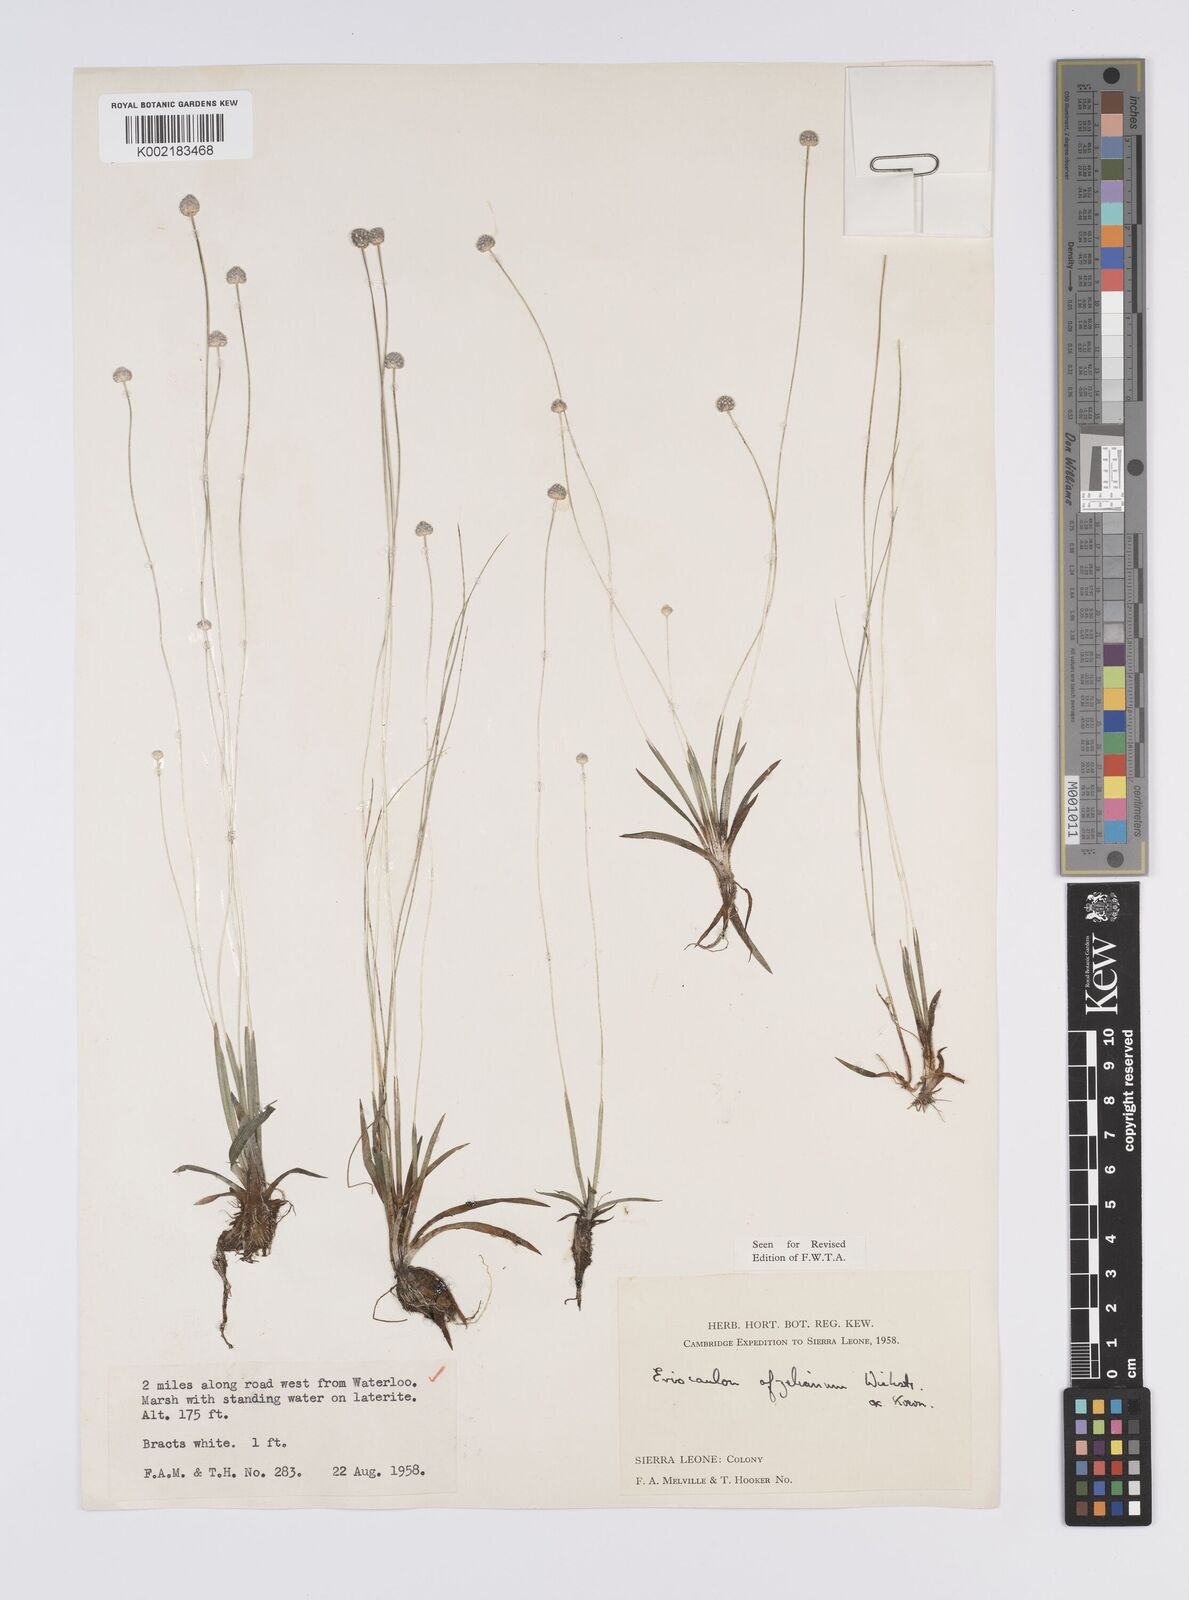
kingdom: Plantae
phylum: Tracheophyta
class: Liliopsida
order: Poales
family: Eriocaulaceae
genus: Eriocaulon
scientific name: Eriocaulon afzelianum
